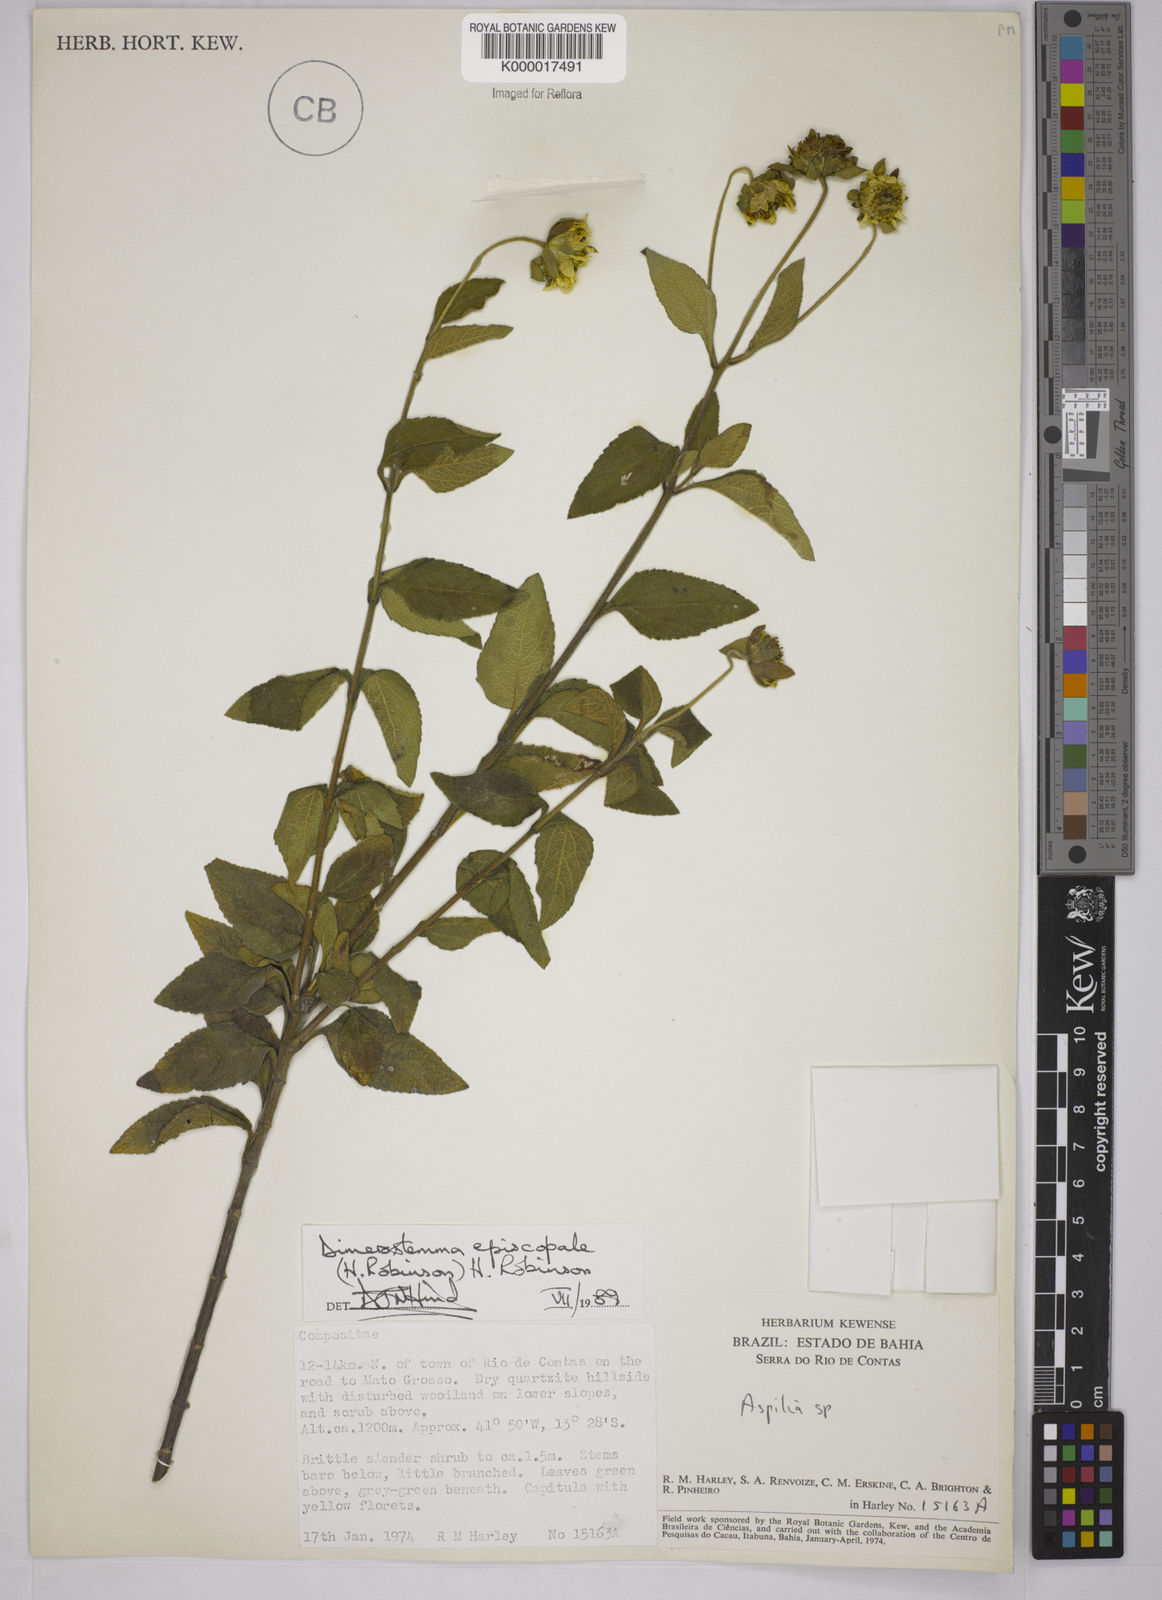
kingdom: Plantae
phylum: Tracheophyta
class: Magnoliopsida
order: Asterales
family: Asteraceae
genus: Dimerostemma
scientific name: Dimerostemma episcopale
